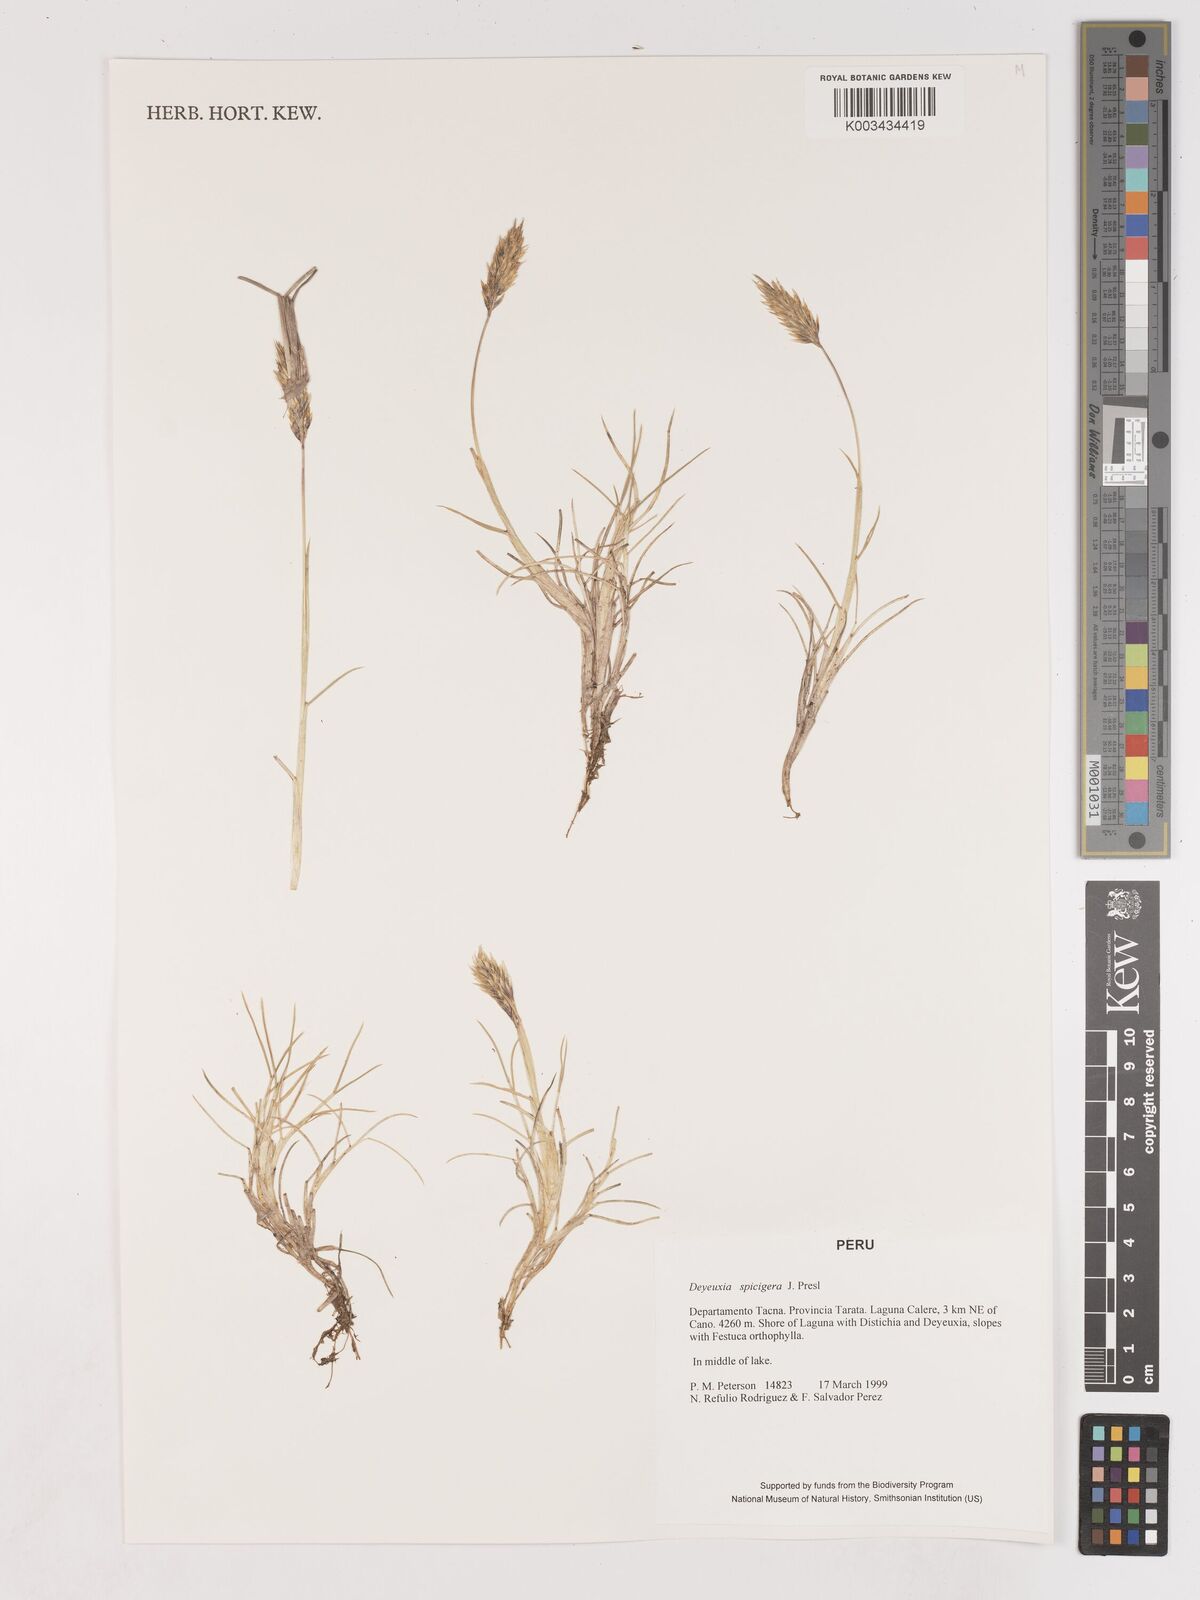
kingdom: Plantae
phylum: Tracheophyta
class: Liliopsida
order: Poales
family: Poaceae
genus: Cinnagrostis
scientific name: Cinnagrostis spicigera
